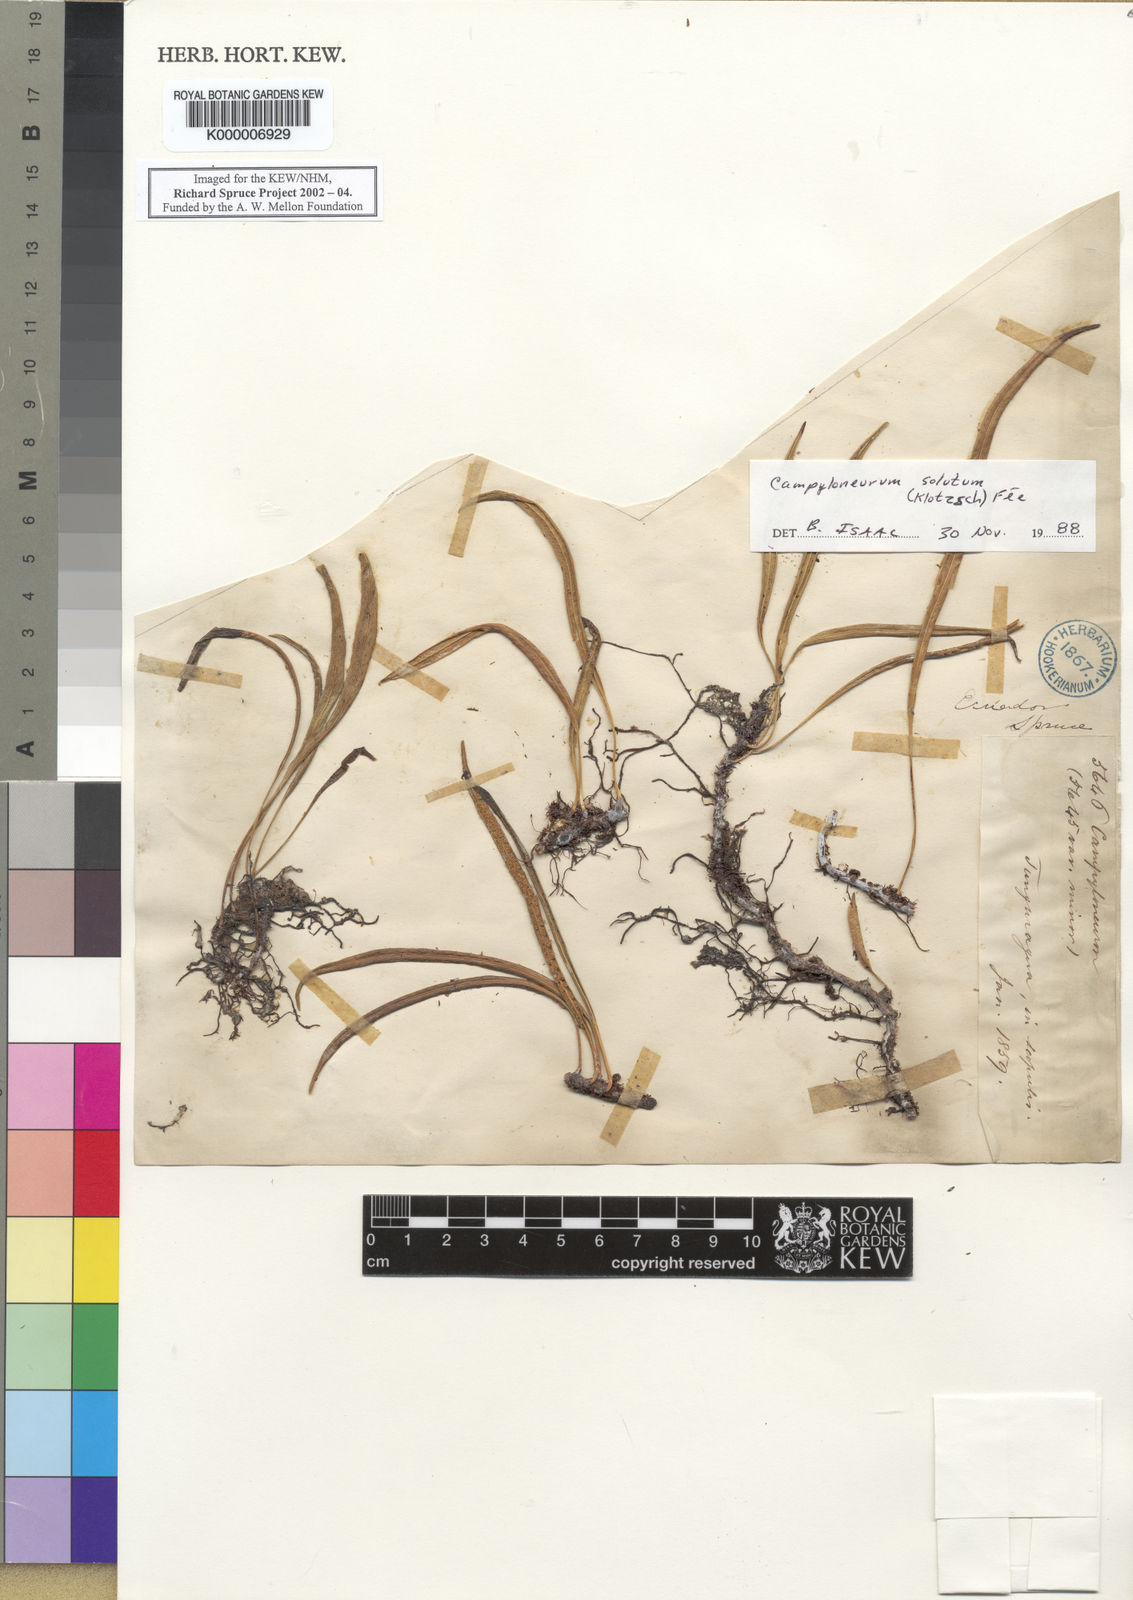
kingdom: Plantae
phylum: Tracheophyta
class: Polypodiopsida
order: Polypodiales
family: Polypodiaceae
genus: Campyloneurum
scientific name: Campyloneurum
